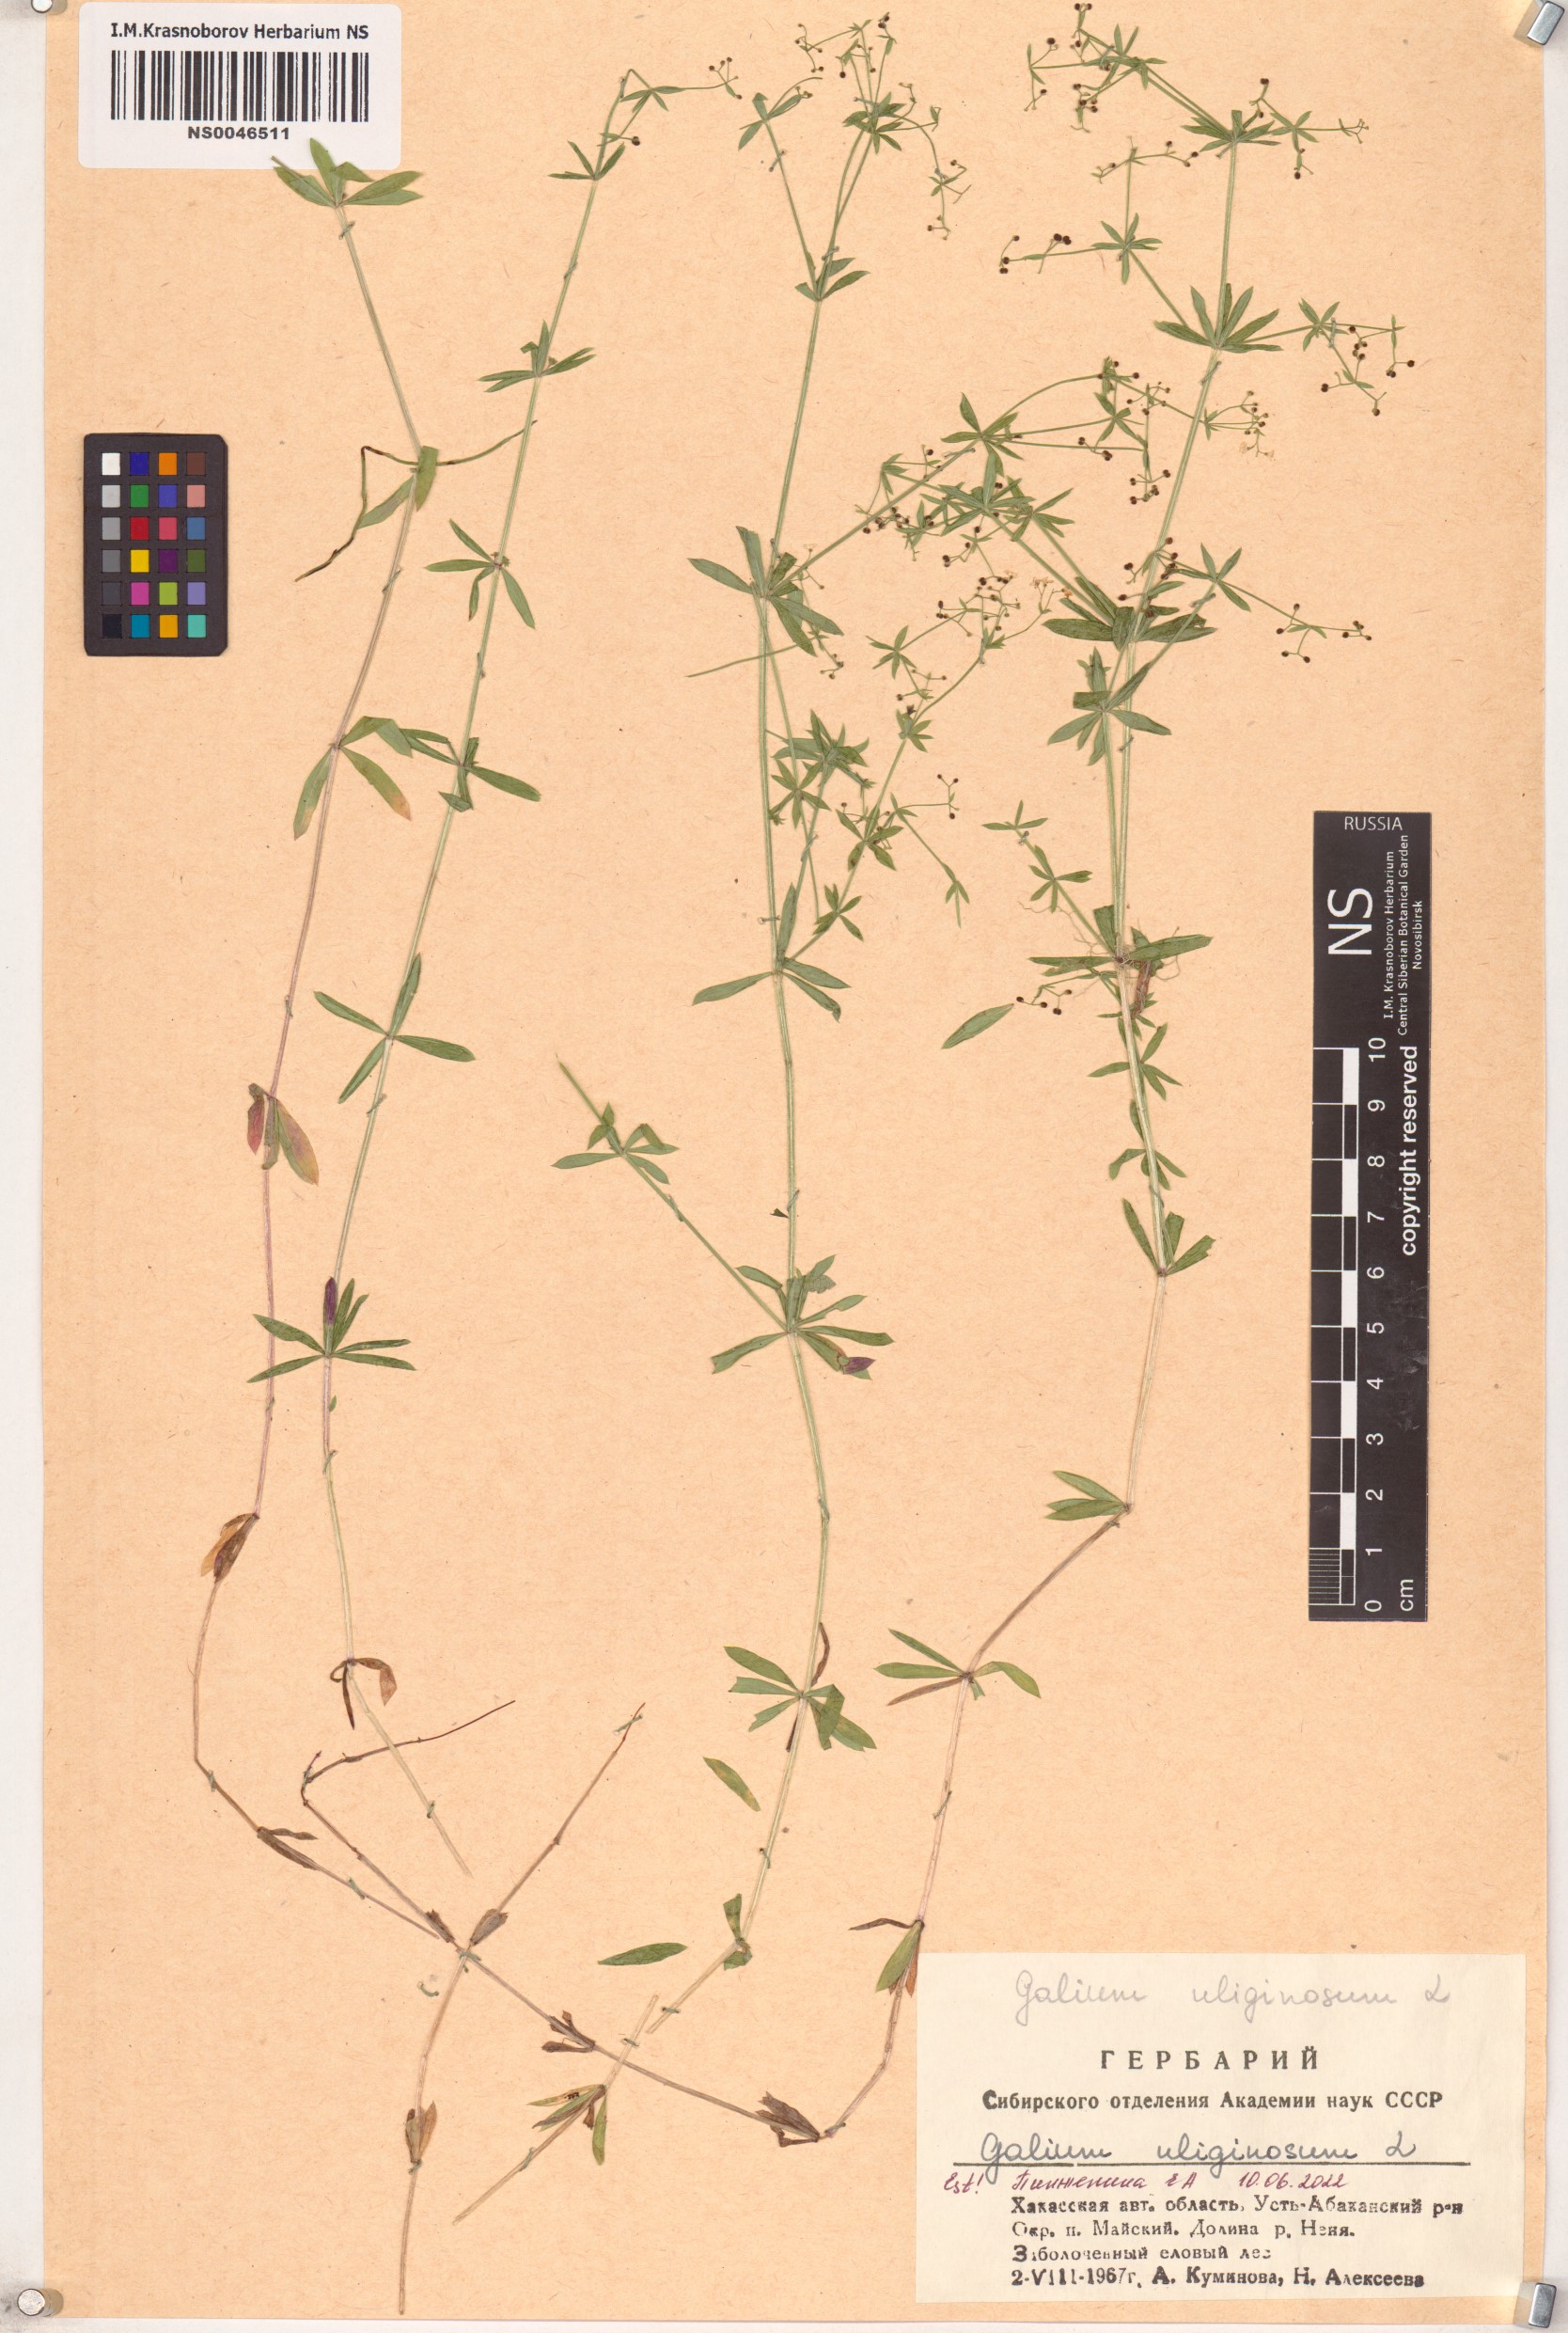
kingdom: Plantae
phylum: Tracheophyta
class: Magnoliopsida
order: Gentianales
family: Rubiaceae
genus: Galium
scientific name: Galium uliginosum
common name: Fen bedstraw
